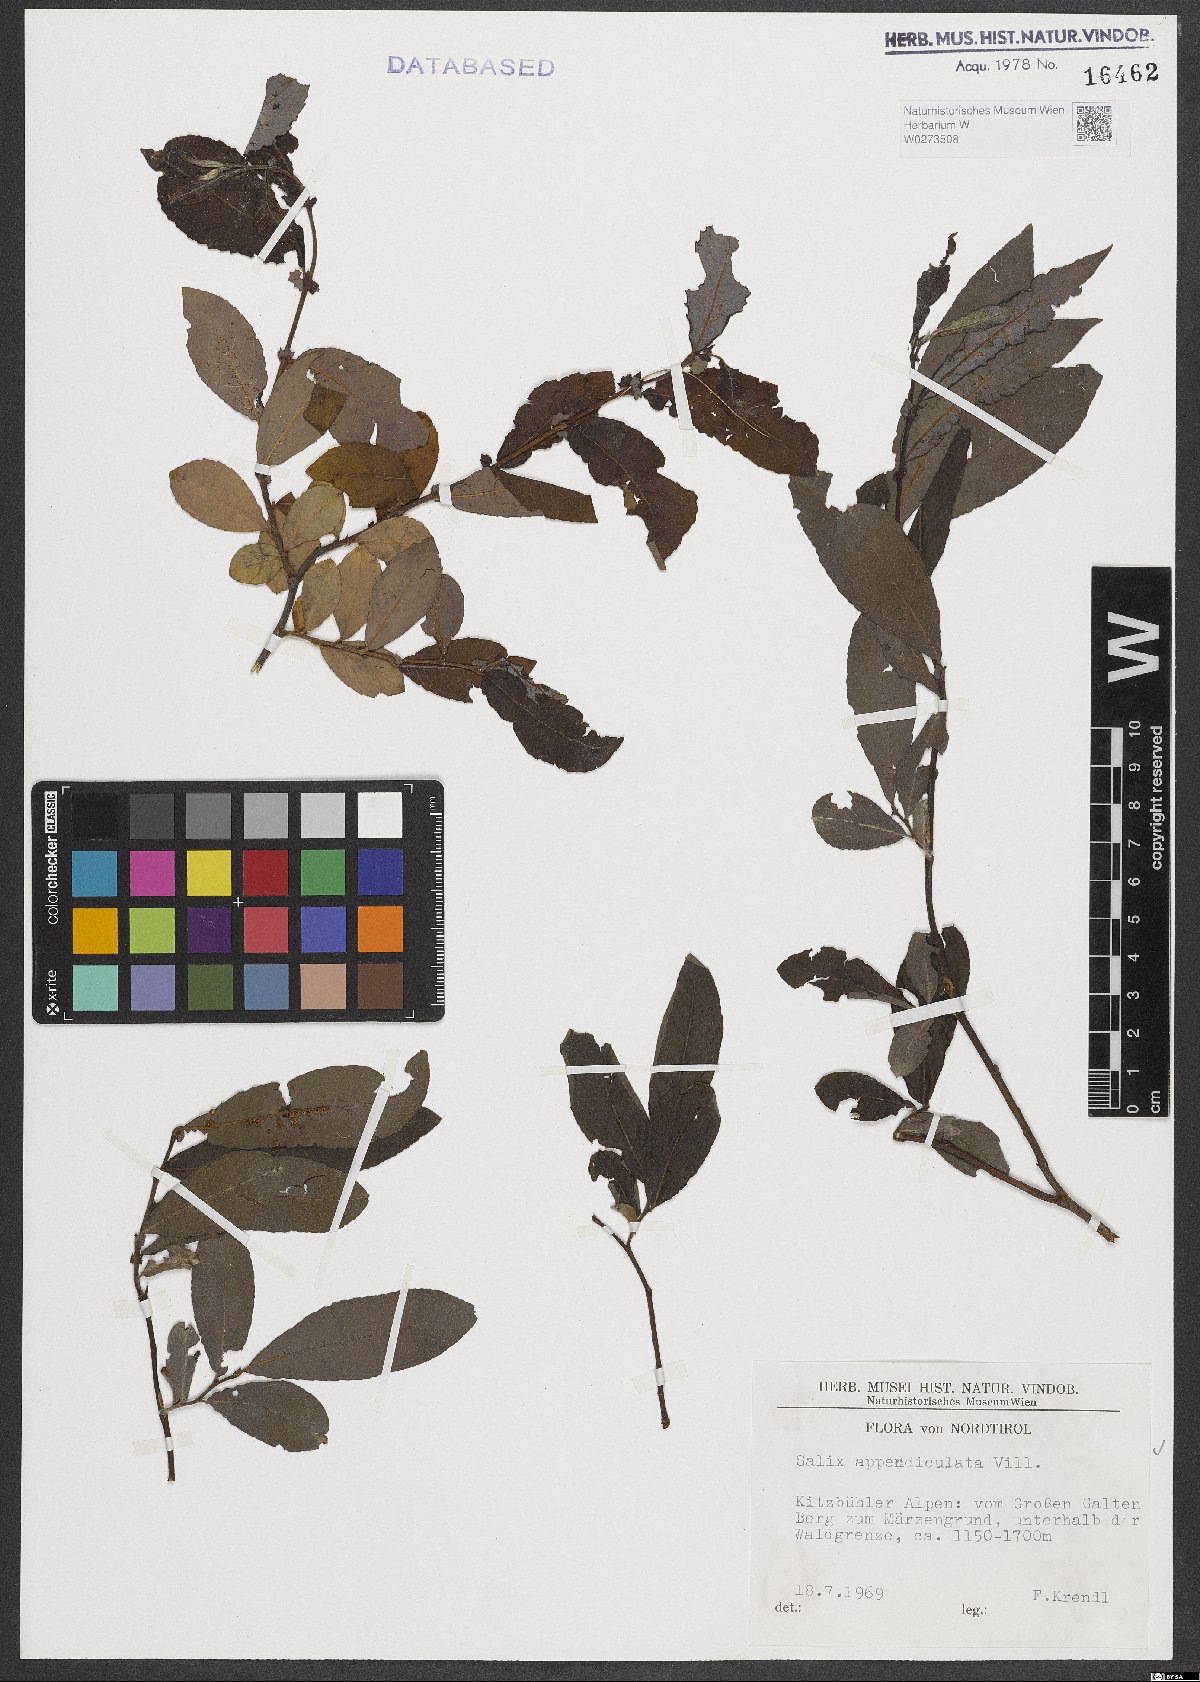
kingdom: Plantae
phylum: Tracheophyta
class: Magnoliopsida
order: Malpighiales
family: Salicaceae
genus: Salix
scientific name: Salix appendiculata
